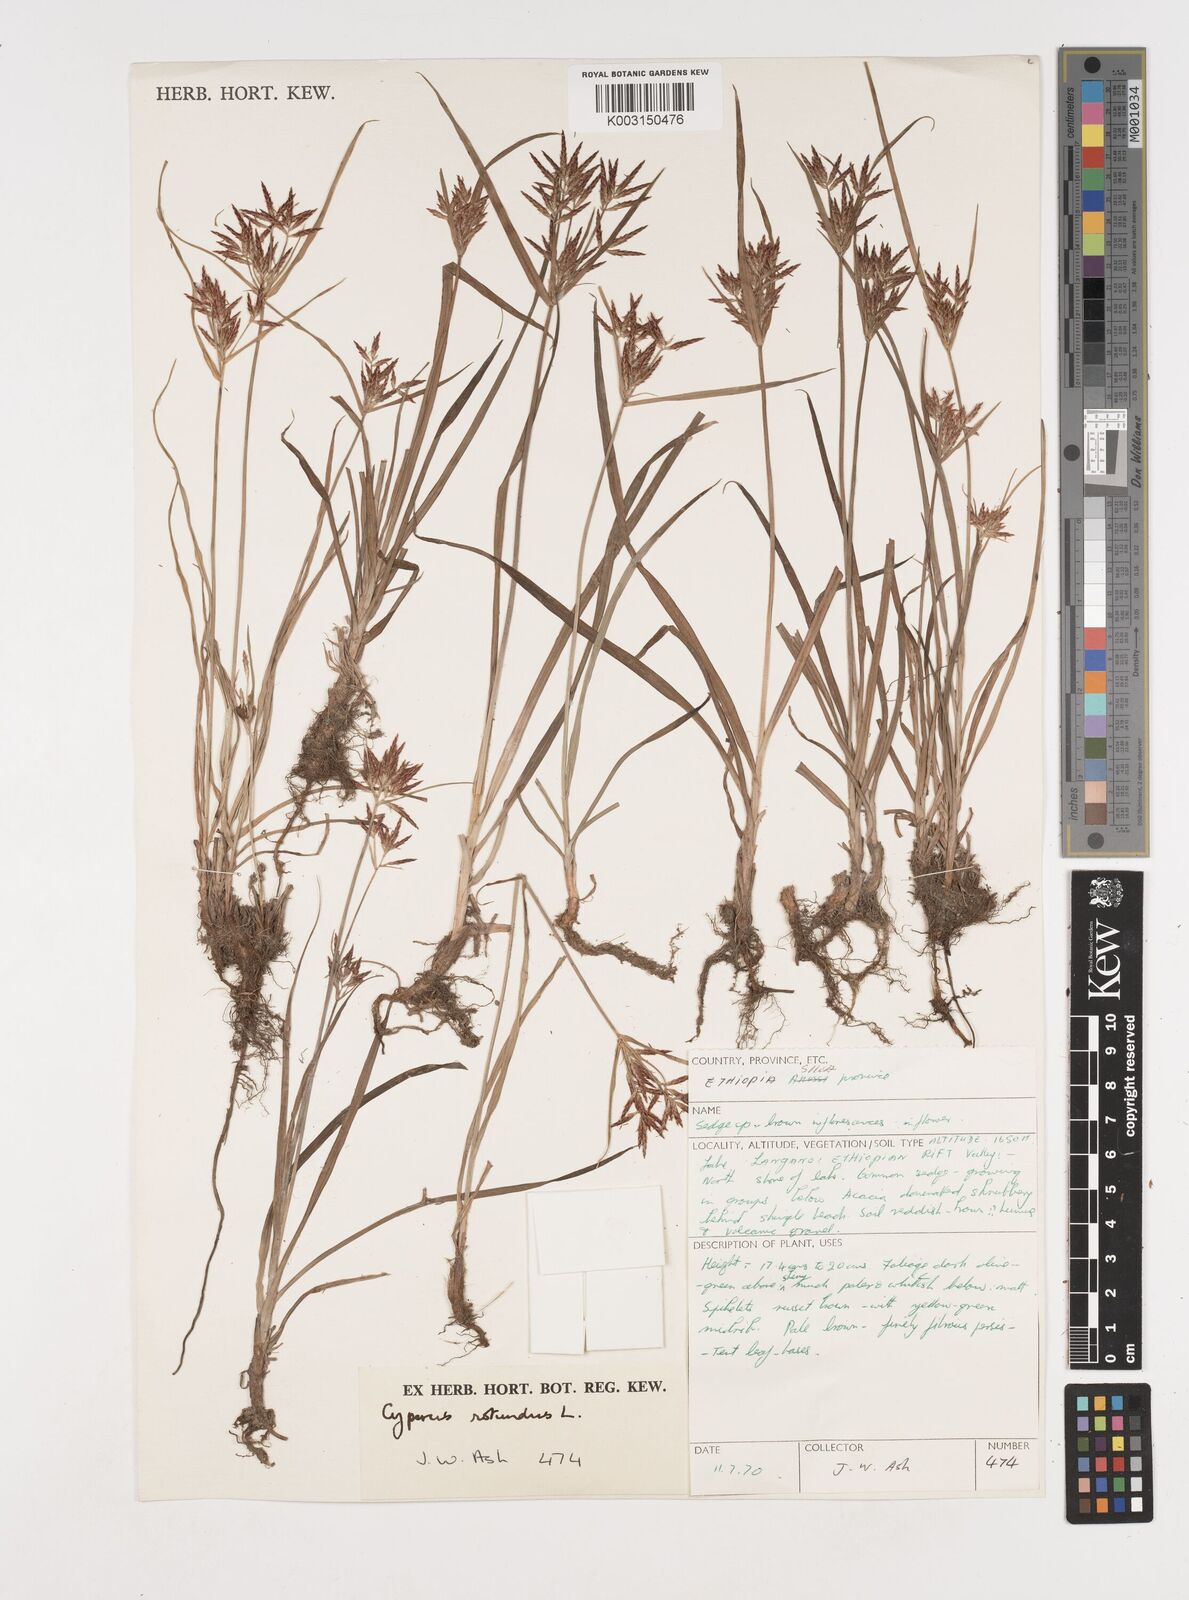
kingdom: Plantae
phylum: Tracheophyta
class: Liliopsida
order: Poales
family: Cyperaceae
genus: Cyperus
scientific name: Cyperus rotundus
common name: Nutgrass
